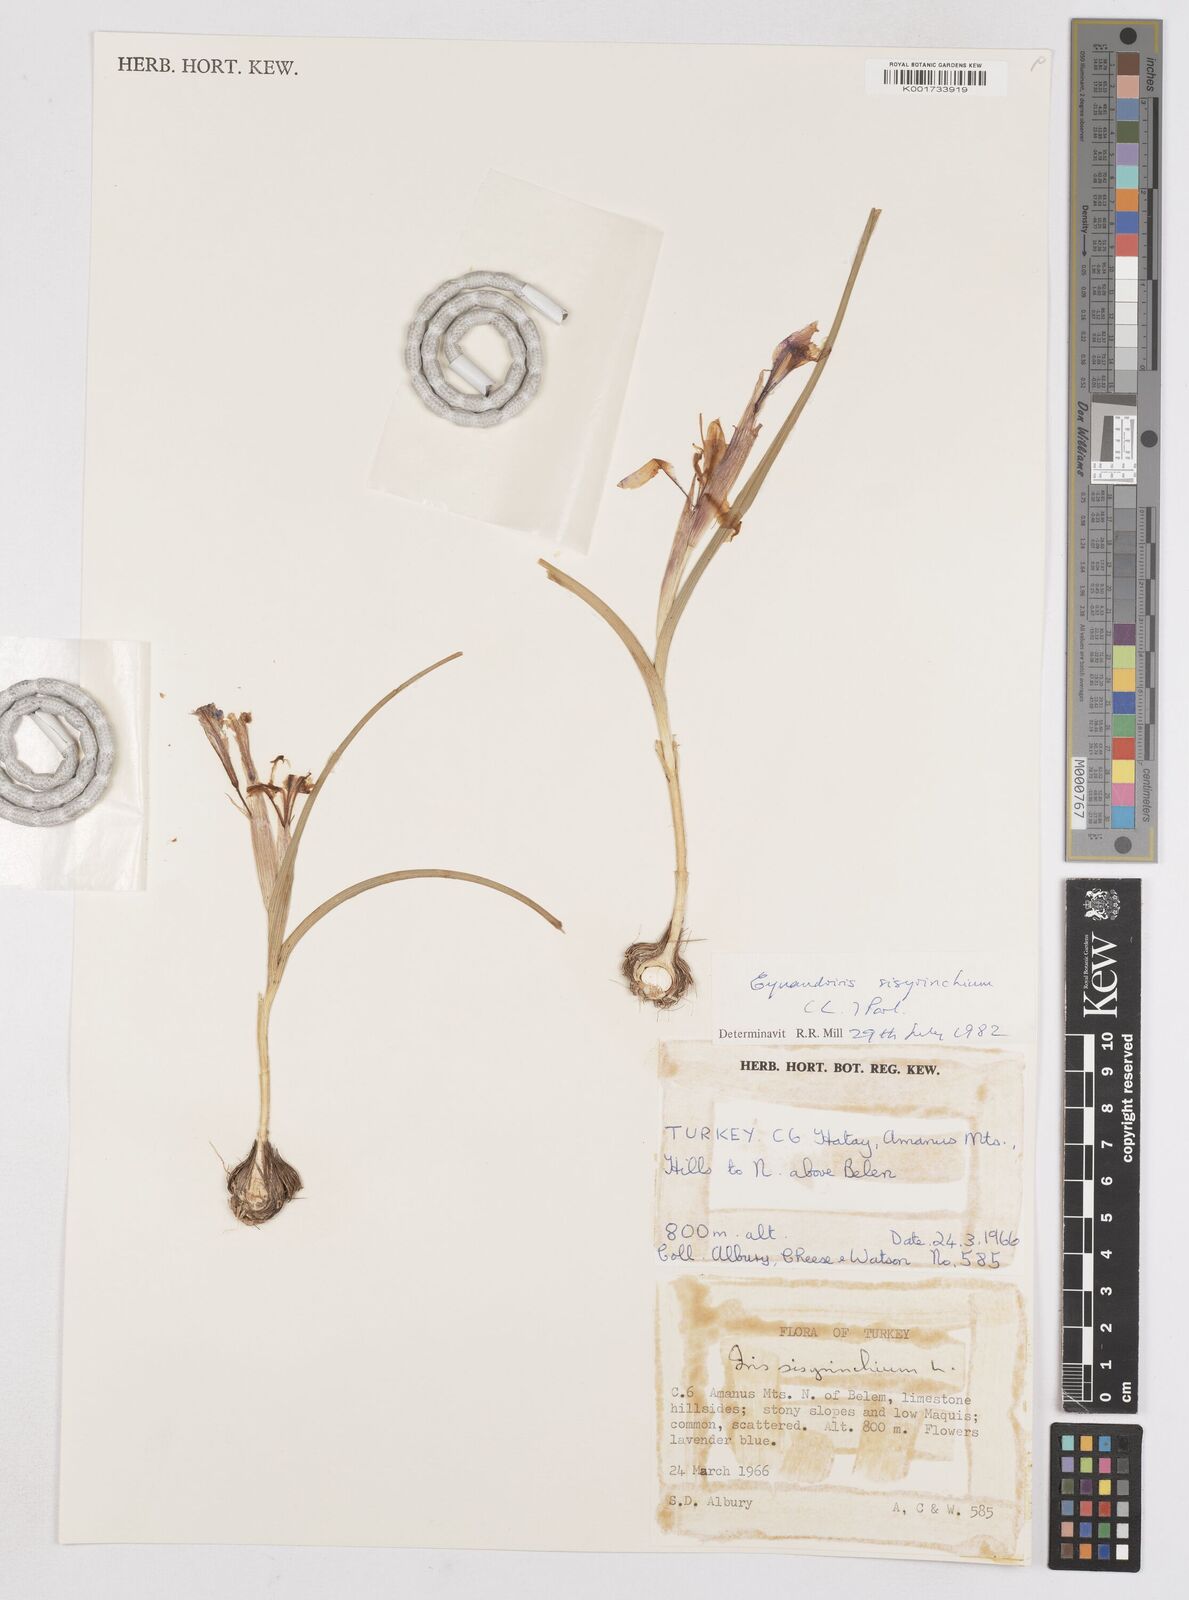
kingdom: Plantae
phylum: Tracheophyta
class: Liliopsida
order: Asparagales
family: Iridaceae
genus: Moraea
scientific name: Moraea sisyrinchium
